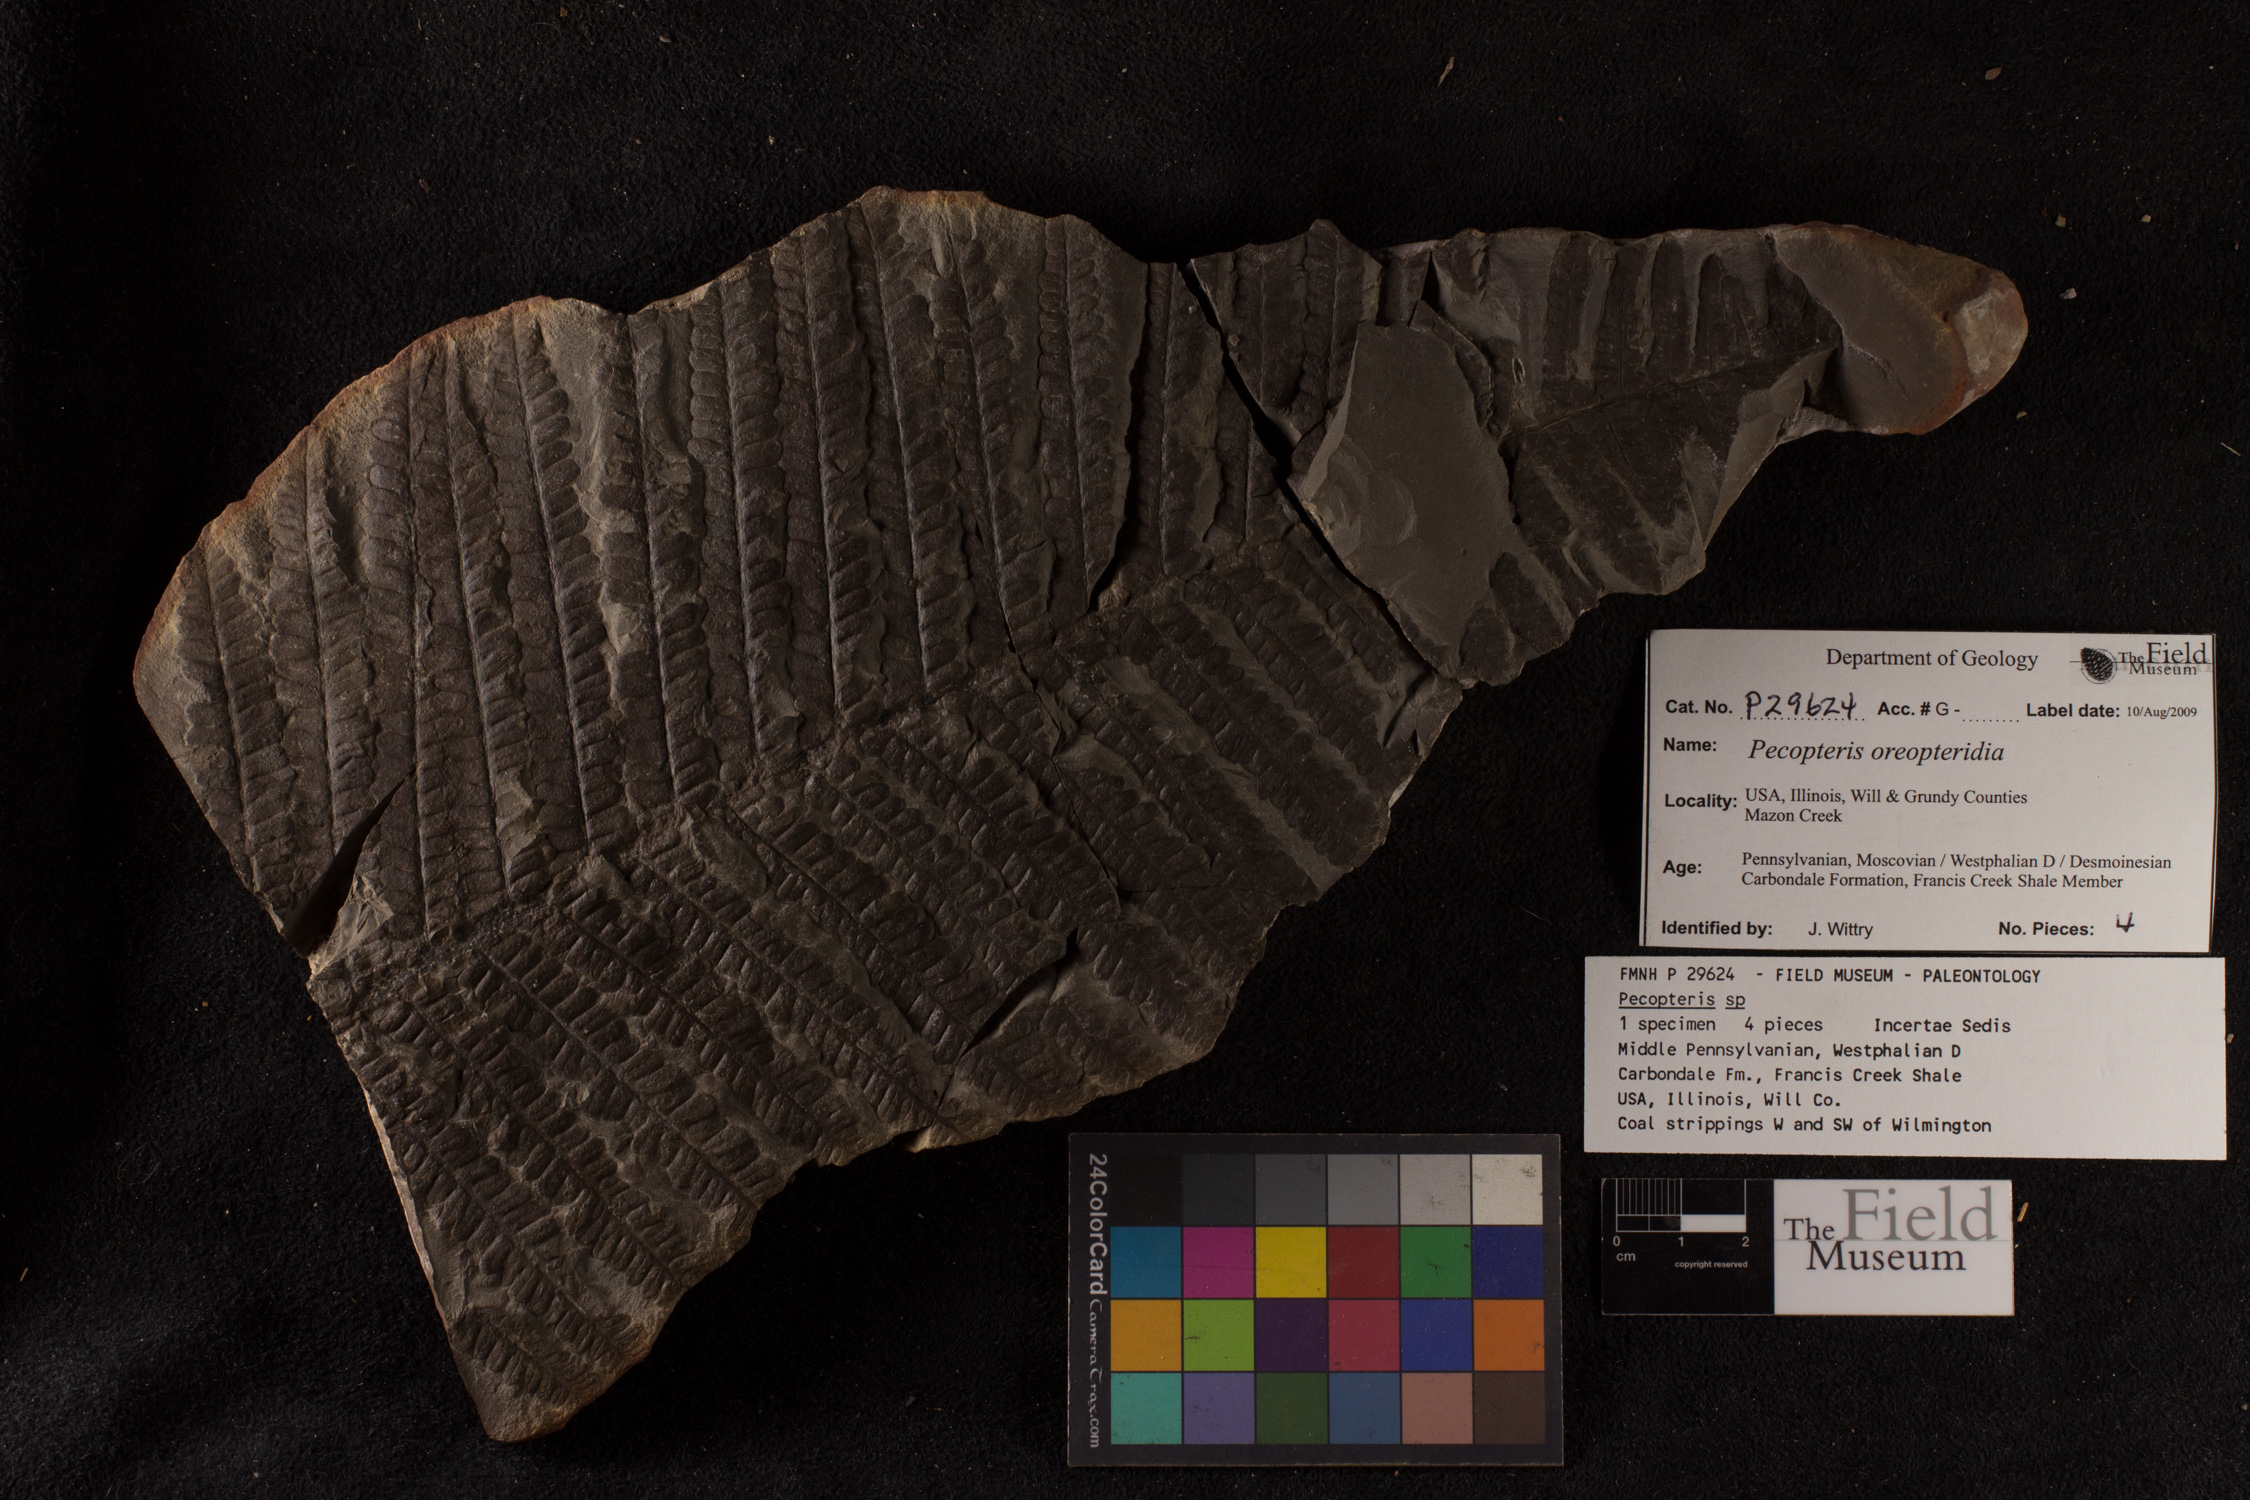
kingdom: Plantae
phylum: Tracheophyta
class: Polypodiopsida
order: Marattiales
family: Asterothecaceae
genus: Pecopteris
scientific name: Pecopteris
